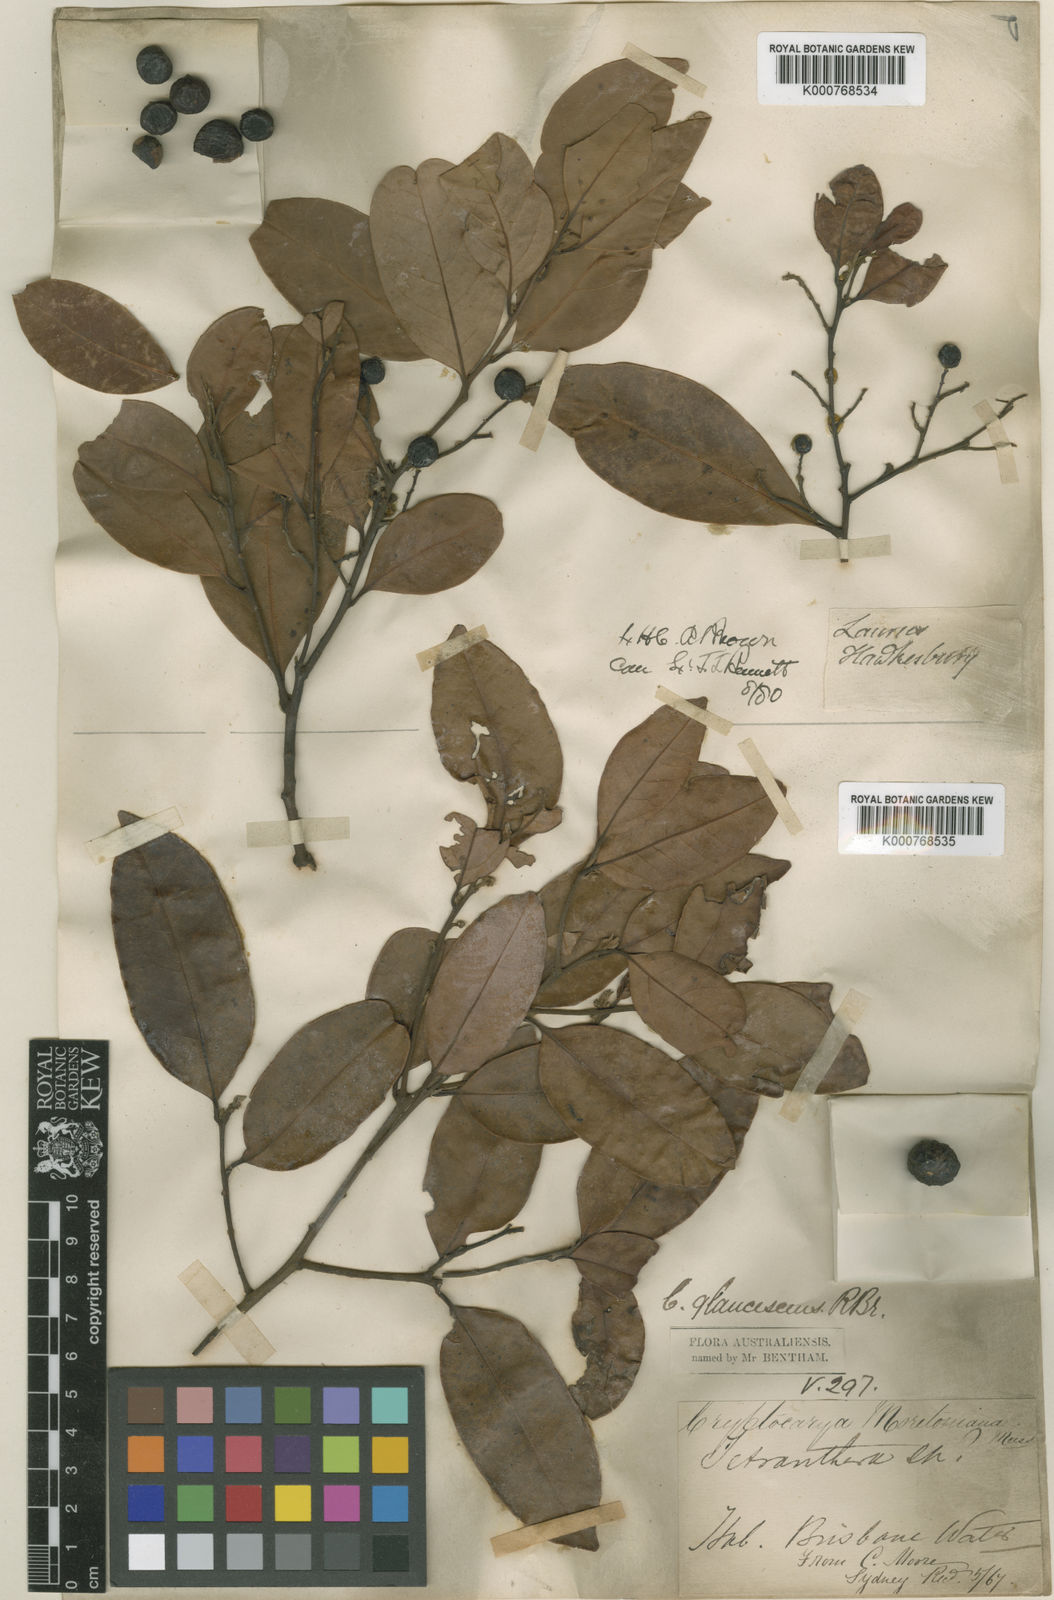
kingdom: Plantae
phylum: Tracheophyta
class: Magnoliopsida
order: Laurales
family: Lauraceae
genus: Cryptocarya
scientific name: Cryptocarya glaucescens
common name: Bolly-laurel
